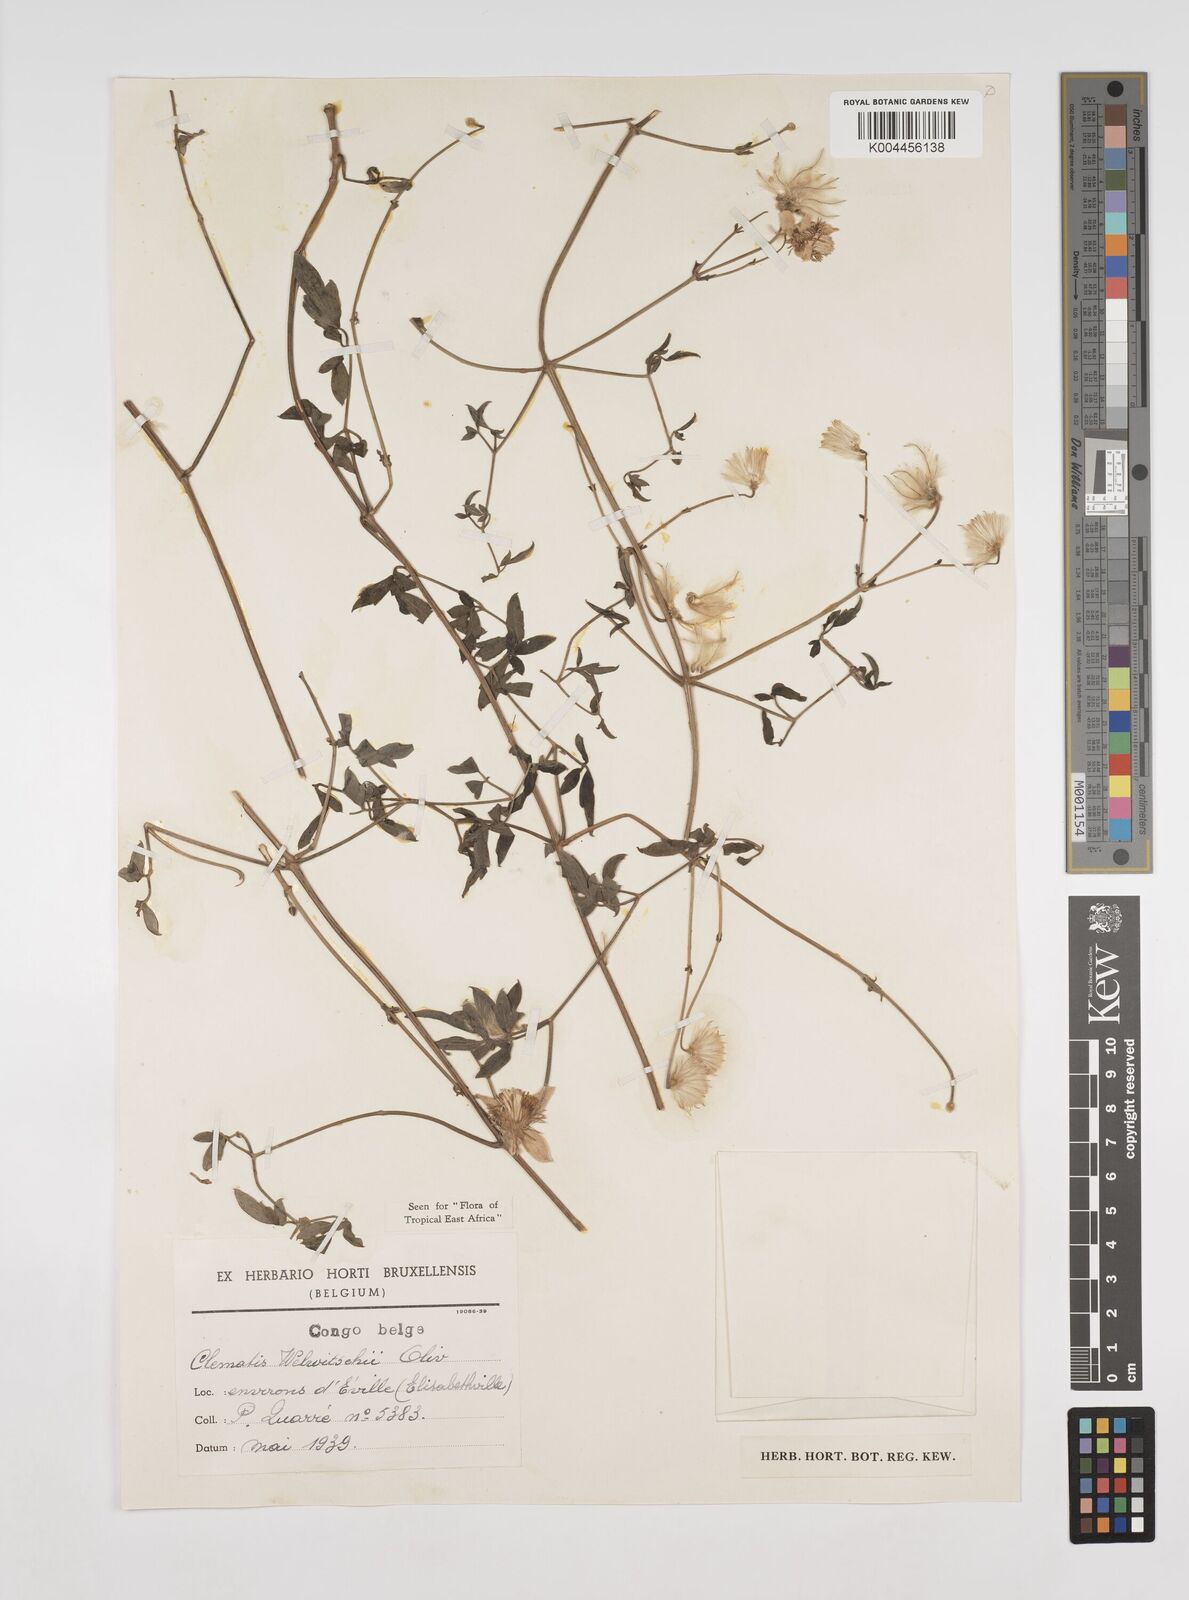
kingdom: Plantae
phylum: Tracheophyta
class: Magnoliopsida
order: Ranunculales
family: Ranunculaceae
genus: Clematis
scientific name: Clematis welwitschii
